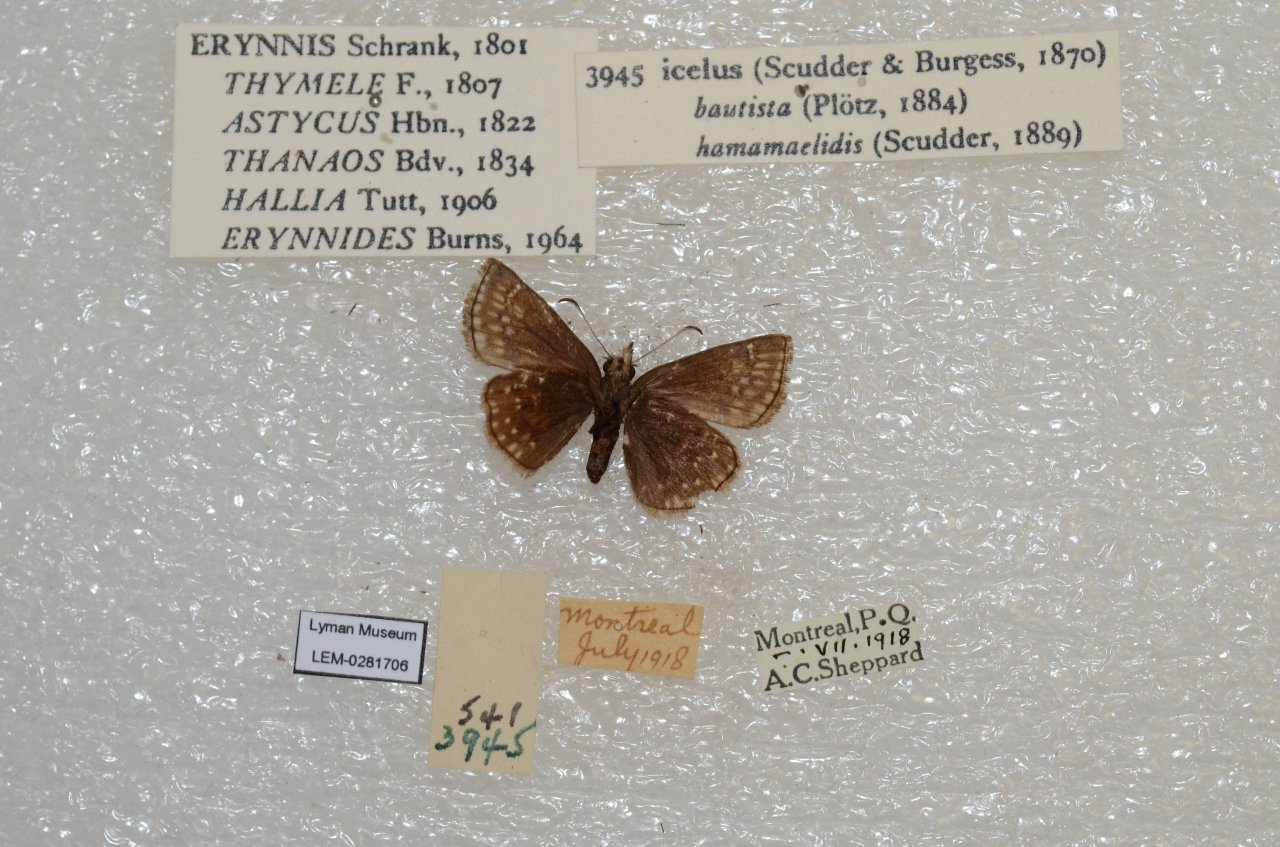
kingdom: Animalia
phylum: Arthropoda
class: Insecta
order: Lepidoptera
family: Hesperiidae
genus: Erynnis
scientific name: Erynnis icelus
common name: Dreamy Duskywing
